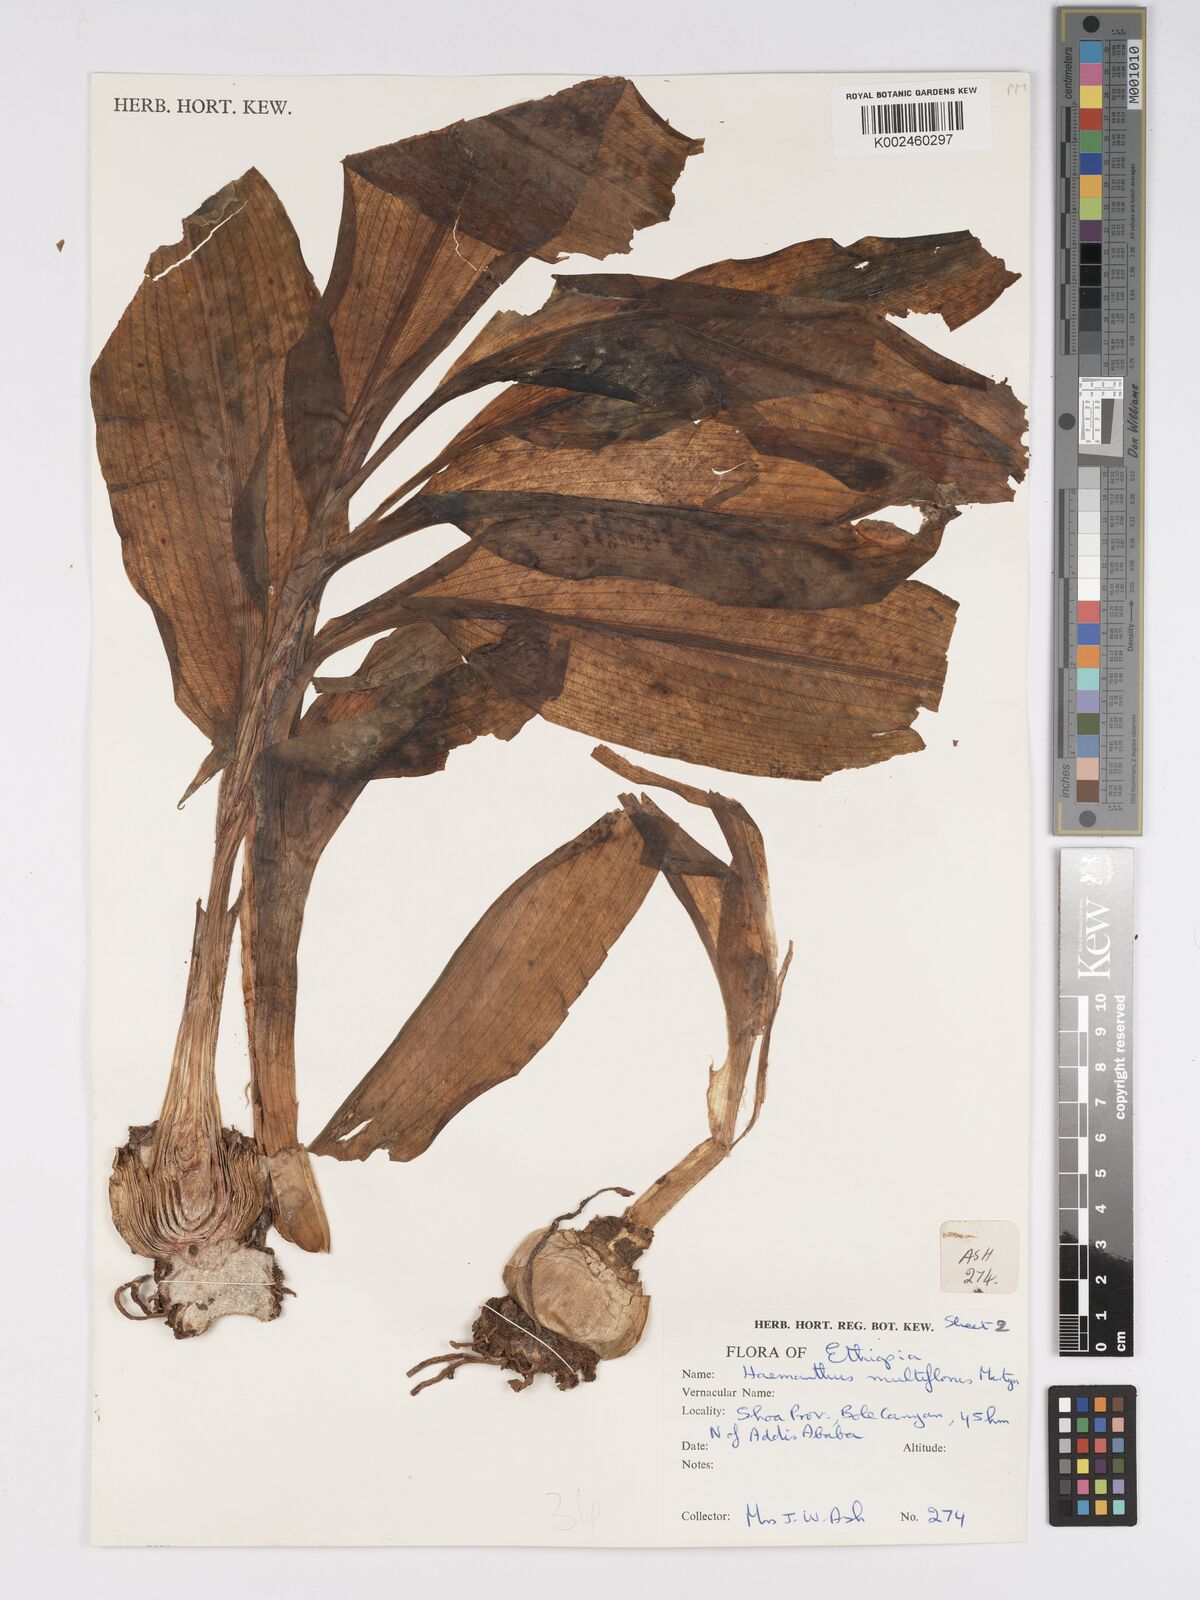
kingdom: Plantae
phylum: Tracheophyta
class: Liliopsida
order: Asparagales
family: Amaryllidaceae
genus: Scadoxus
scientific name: Scadoxus multiflorus
